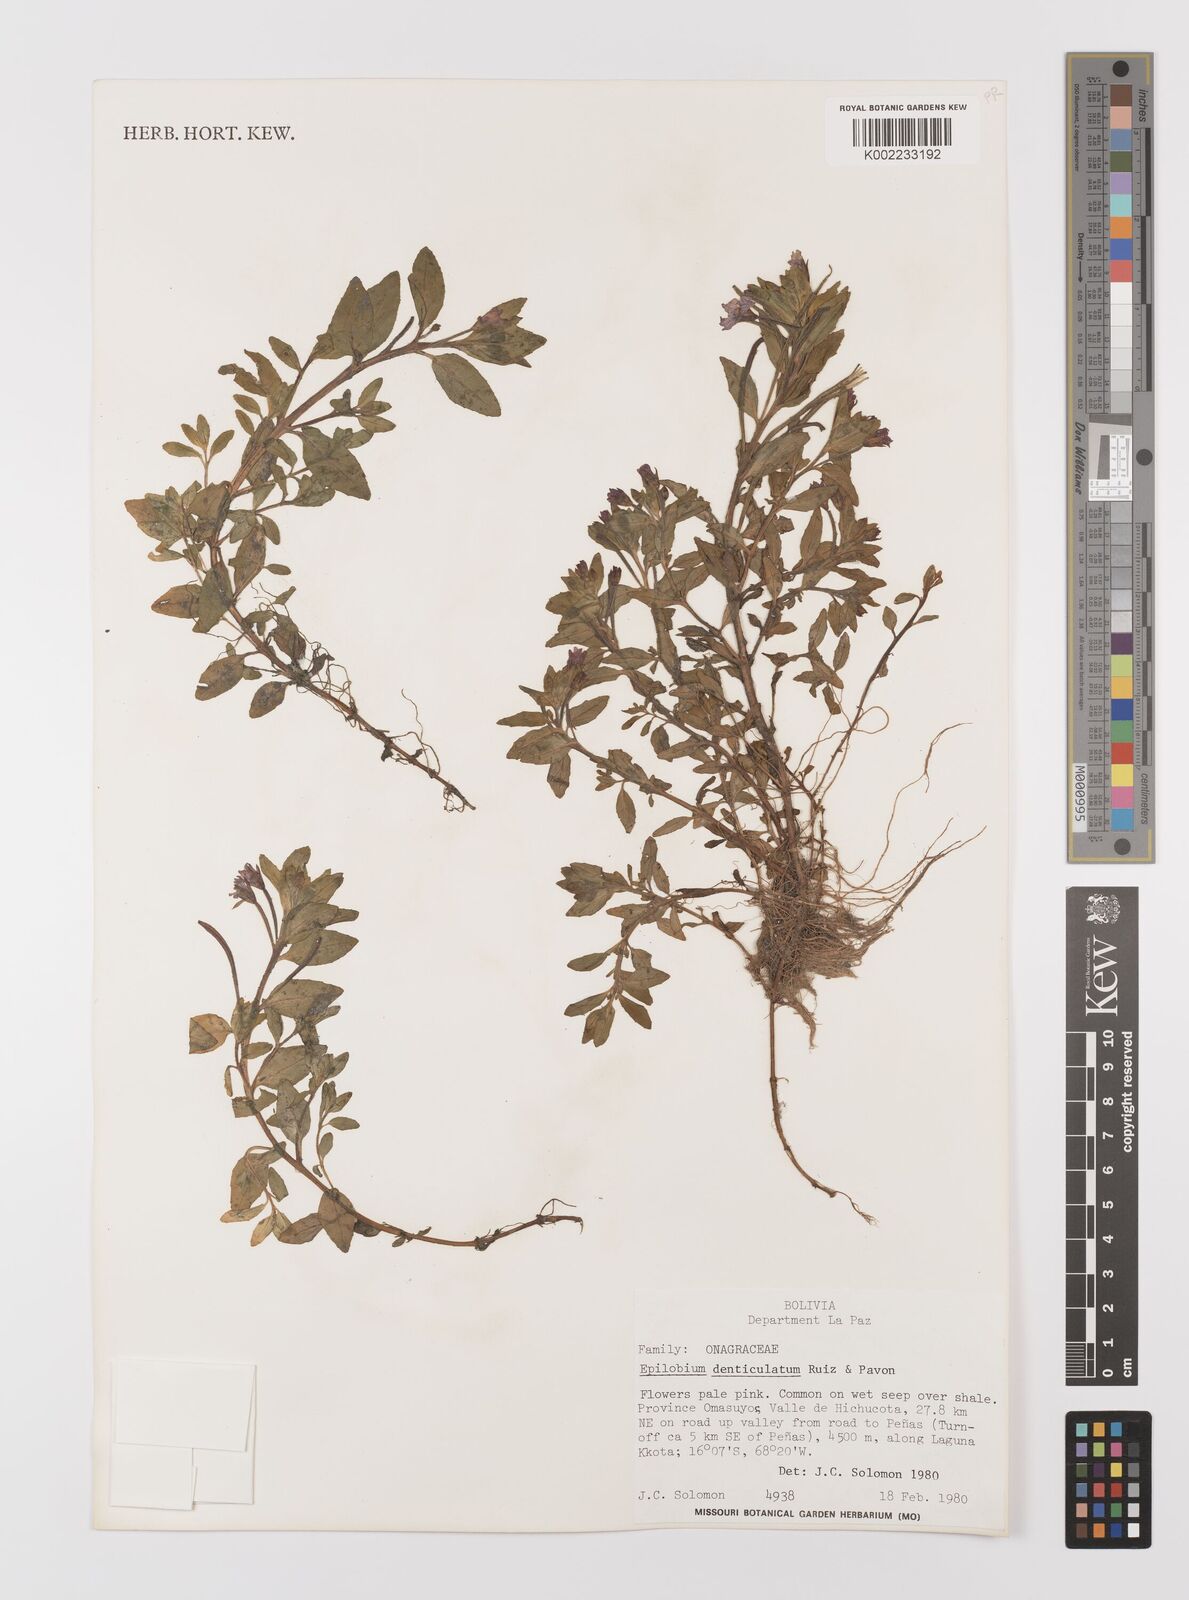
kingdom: Plantae
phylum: Tracheophyta
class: Magnoliopsida
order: Myrtales
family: Onagraceae
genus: Epilobium
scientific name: Epilobium denticulatum
